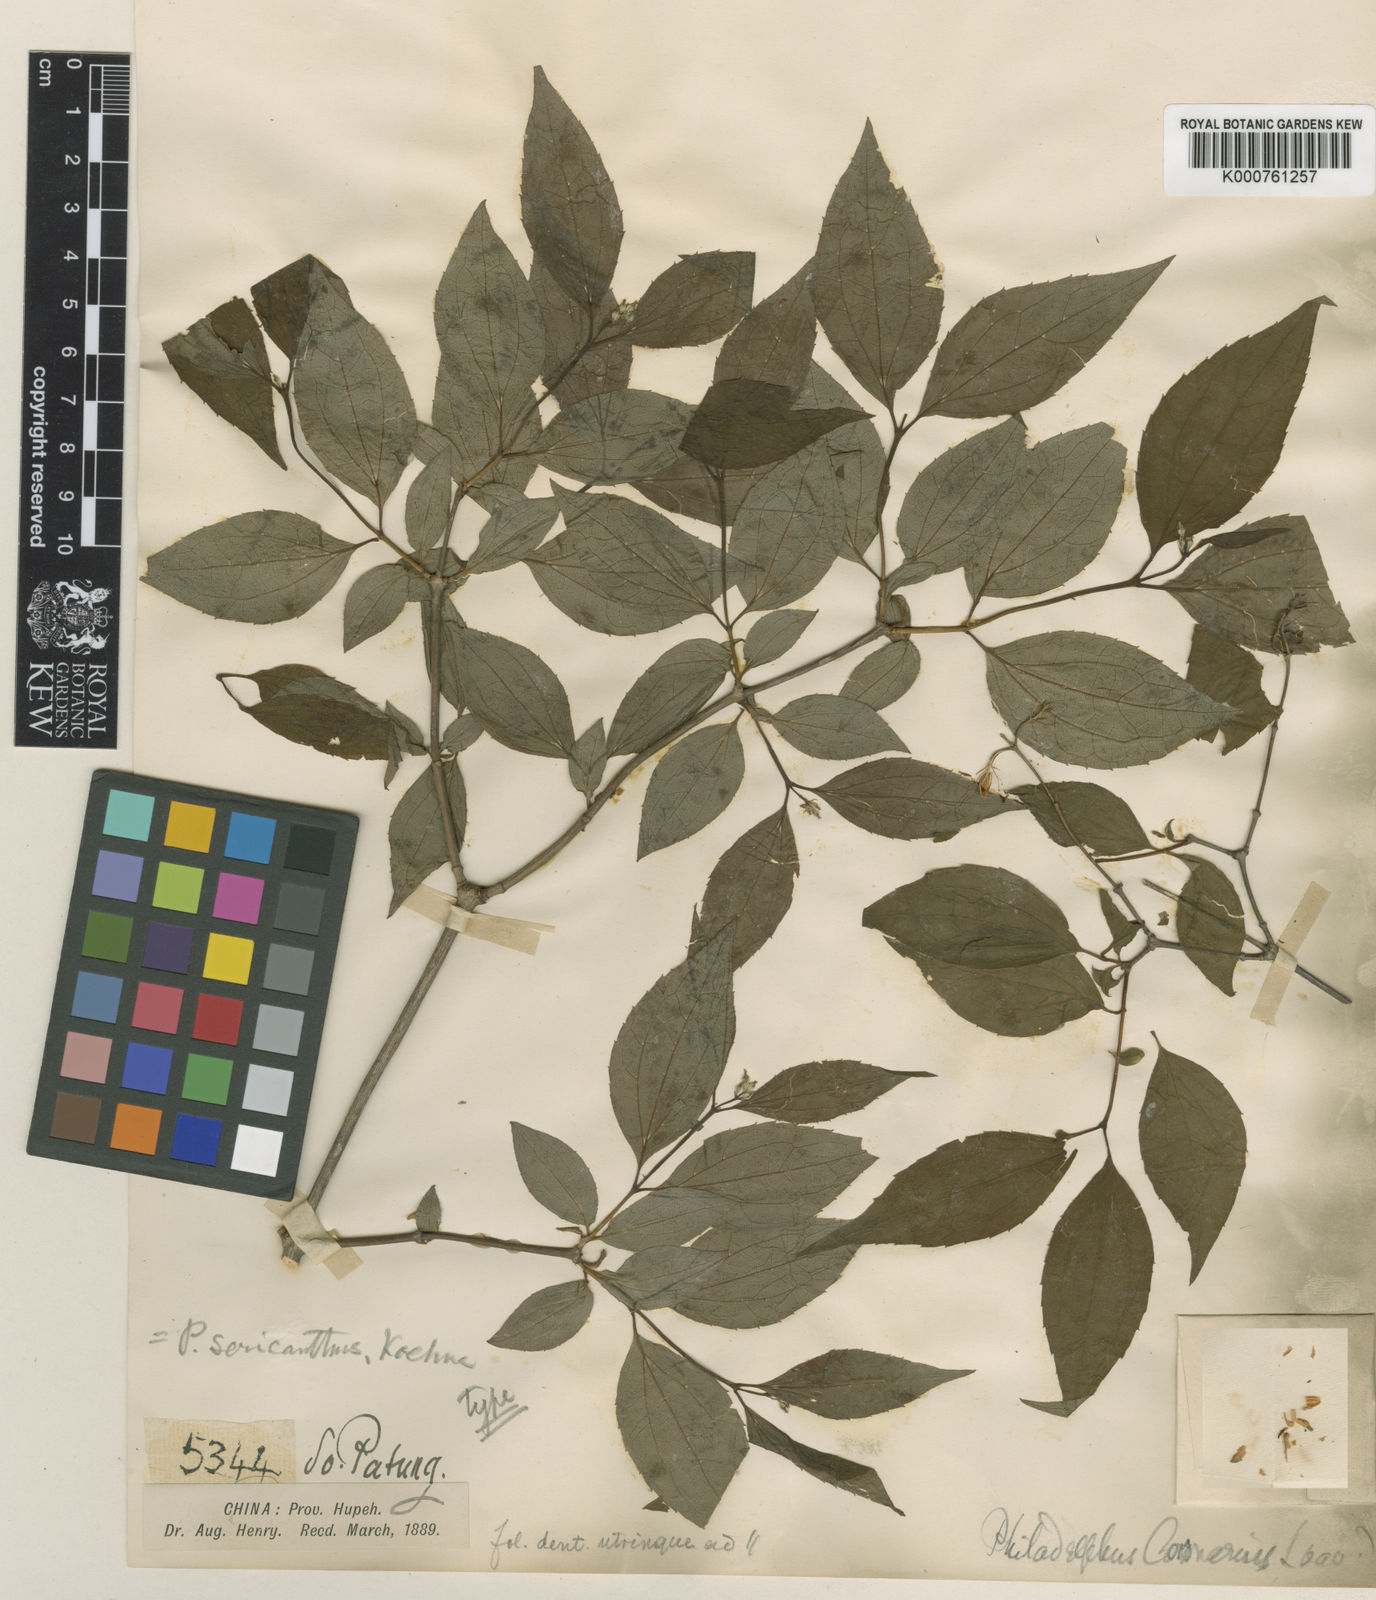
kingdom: Plantae
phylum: Tracheophyta
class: Magnoliopsida
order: Cornales
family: Hydrangeaceae
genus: Philadelphus
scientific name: Philadelphus sericanthus
